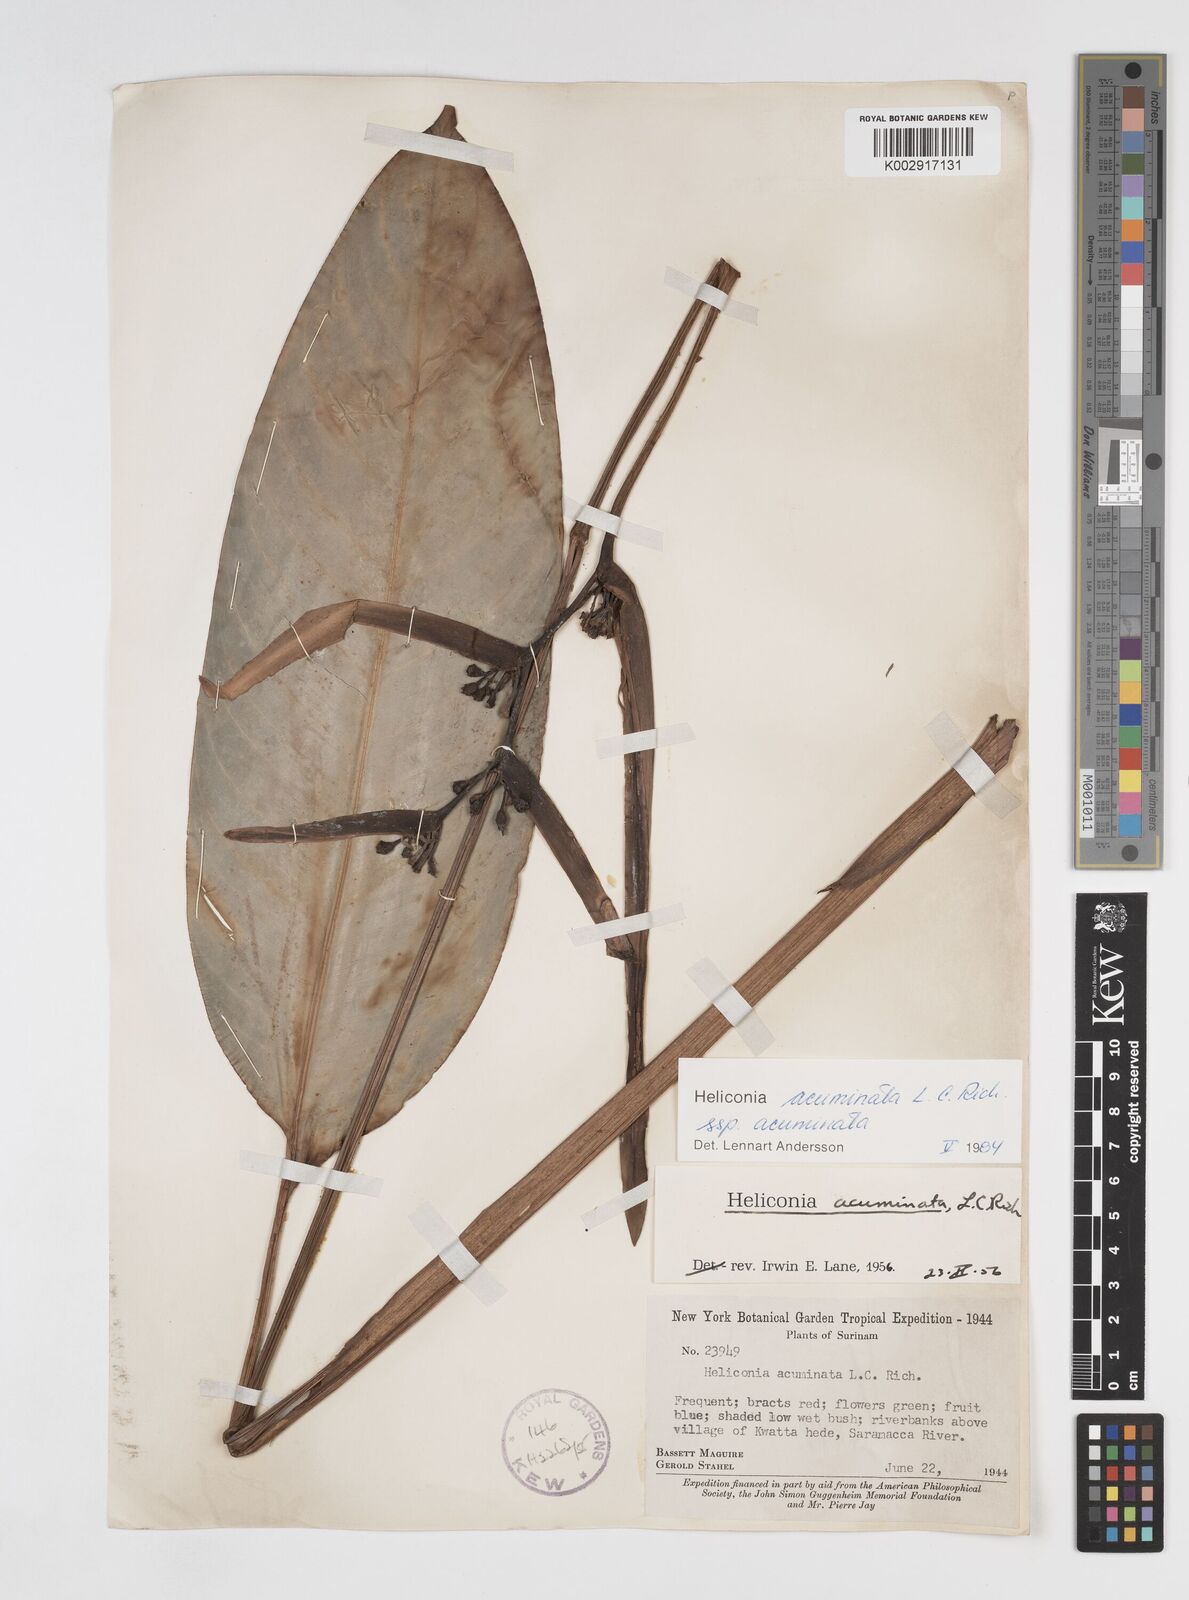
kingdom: Plantae
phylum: Tracheophyta
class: Liliopsida
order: Zingiberales
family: Heliconiaceae
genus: Heliconia
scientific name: Heliconia acuminata
